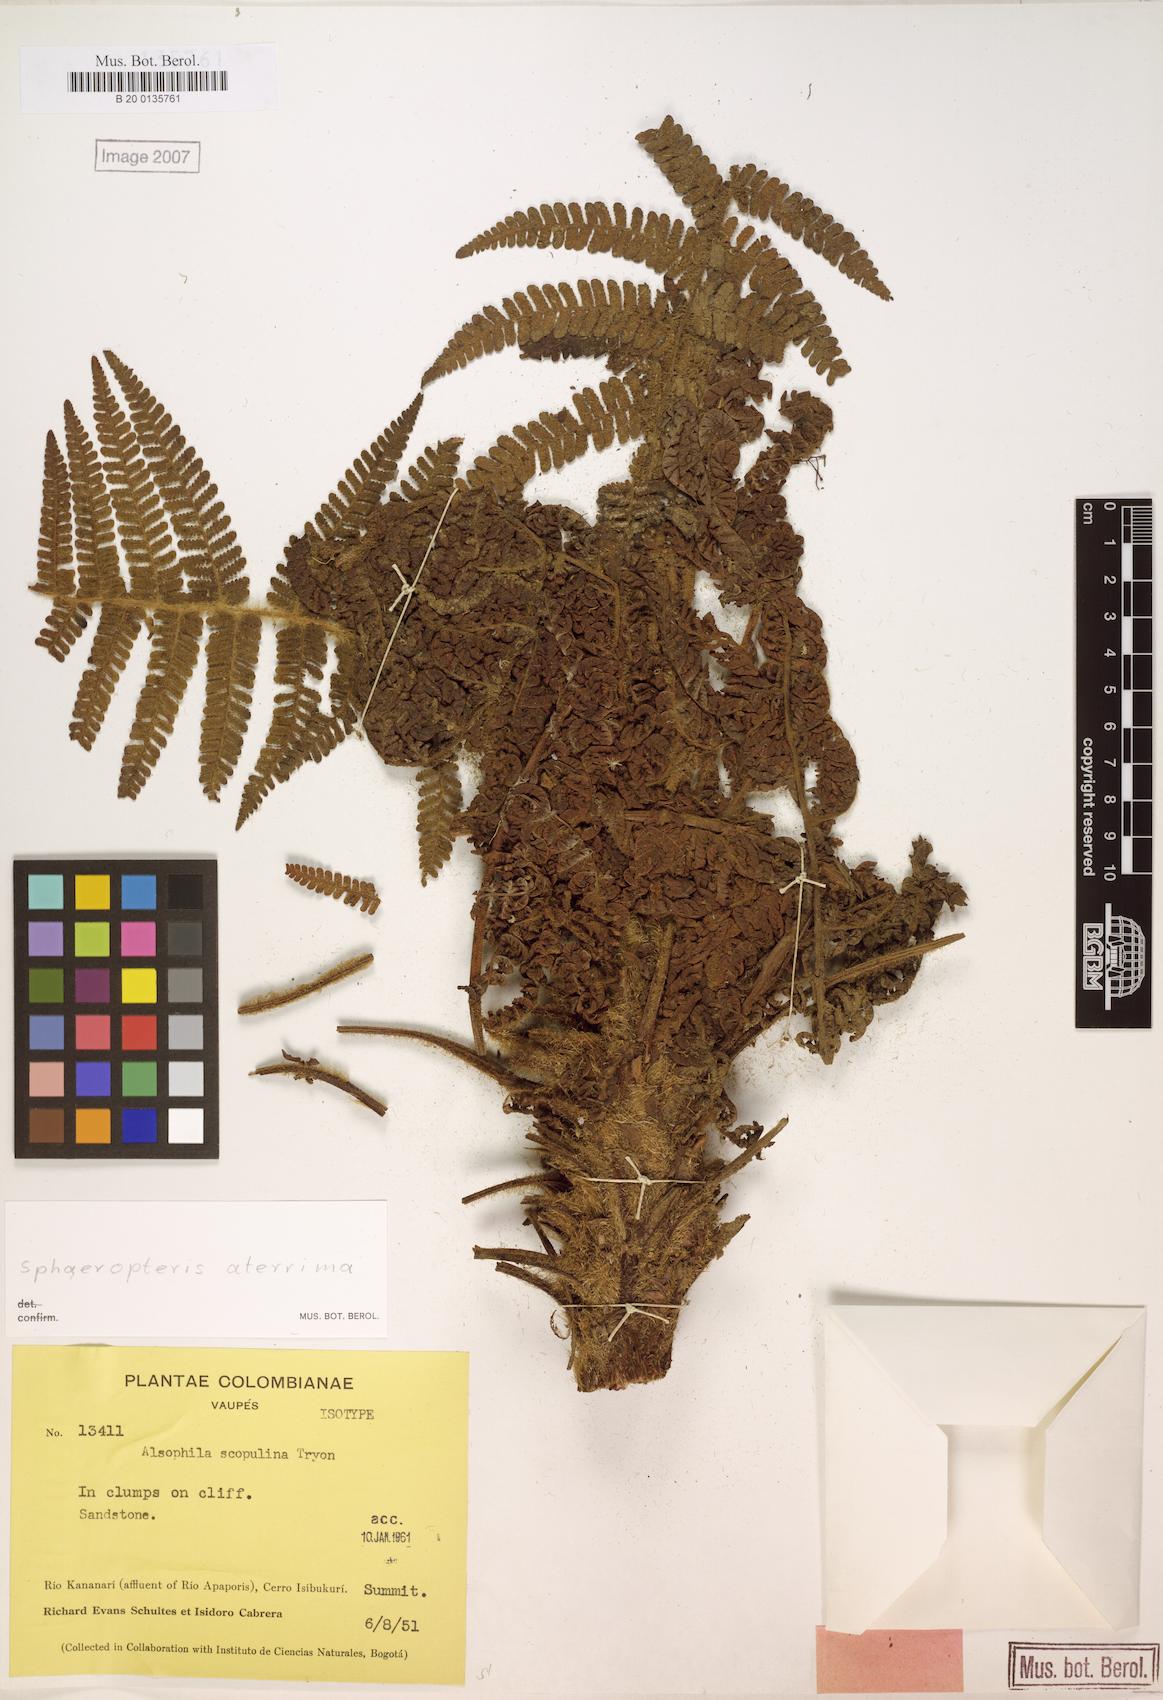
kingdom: Plantae
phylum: Tracheophyta
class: Polypodiopsida
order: Cyatheales
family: Cyatheaceae
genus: Cyathea
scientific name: Cyathea aterrima
